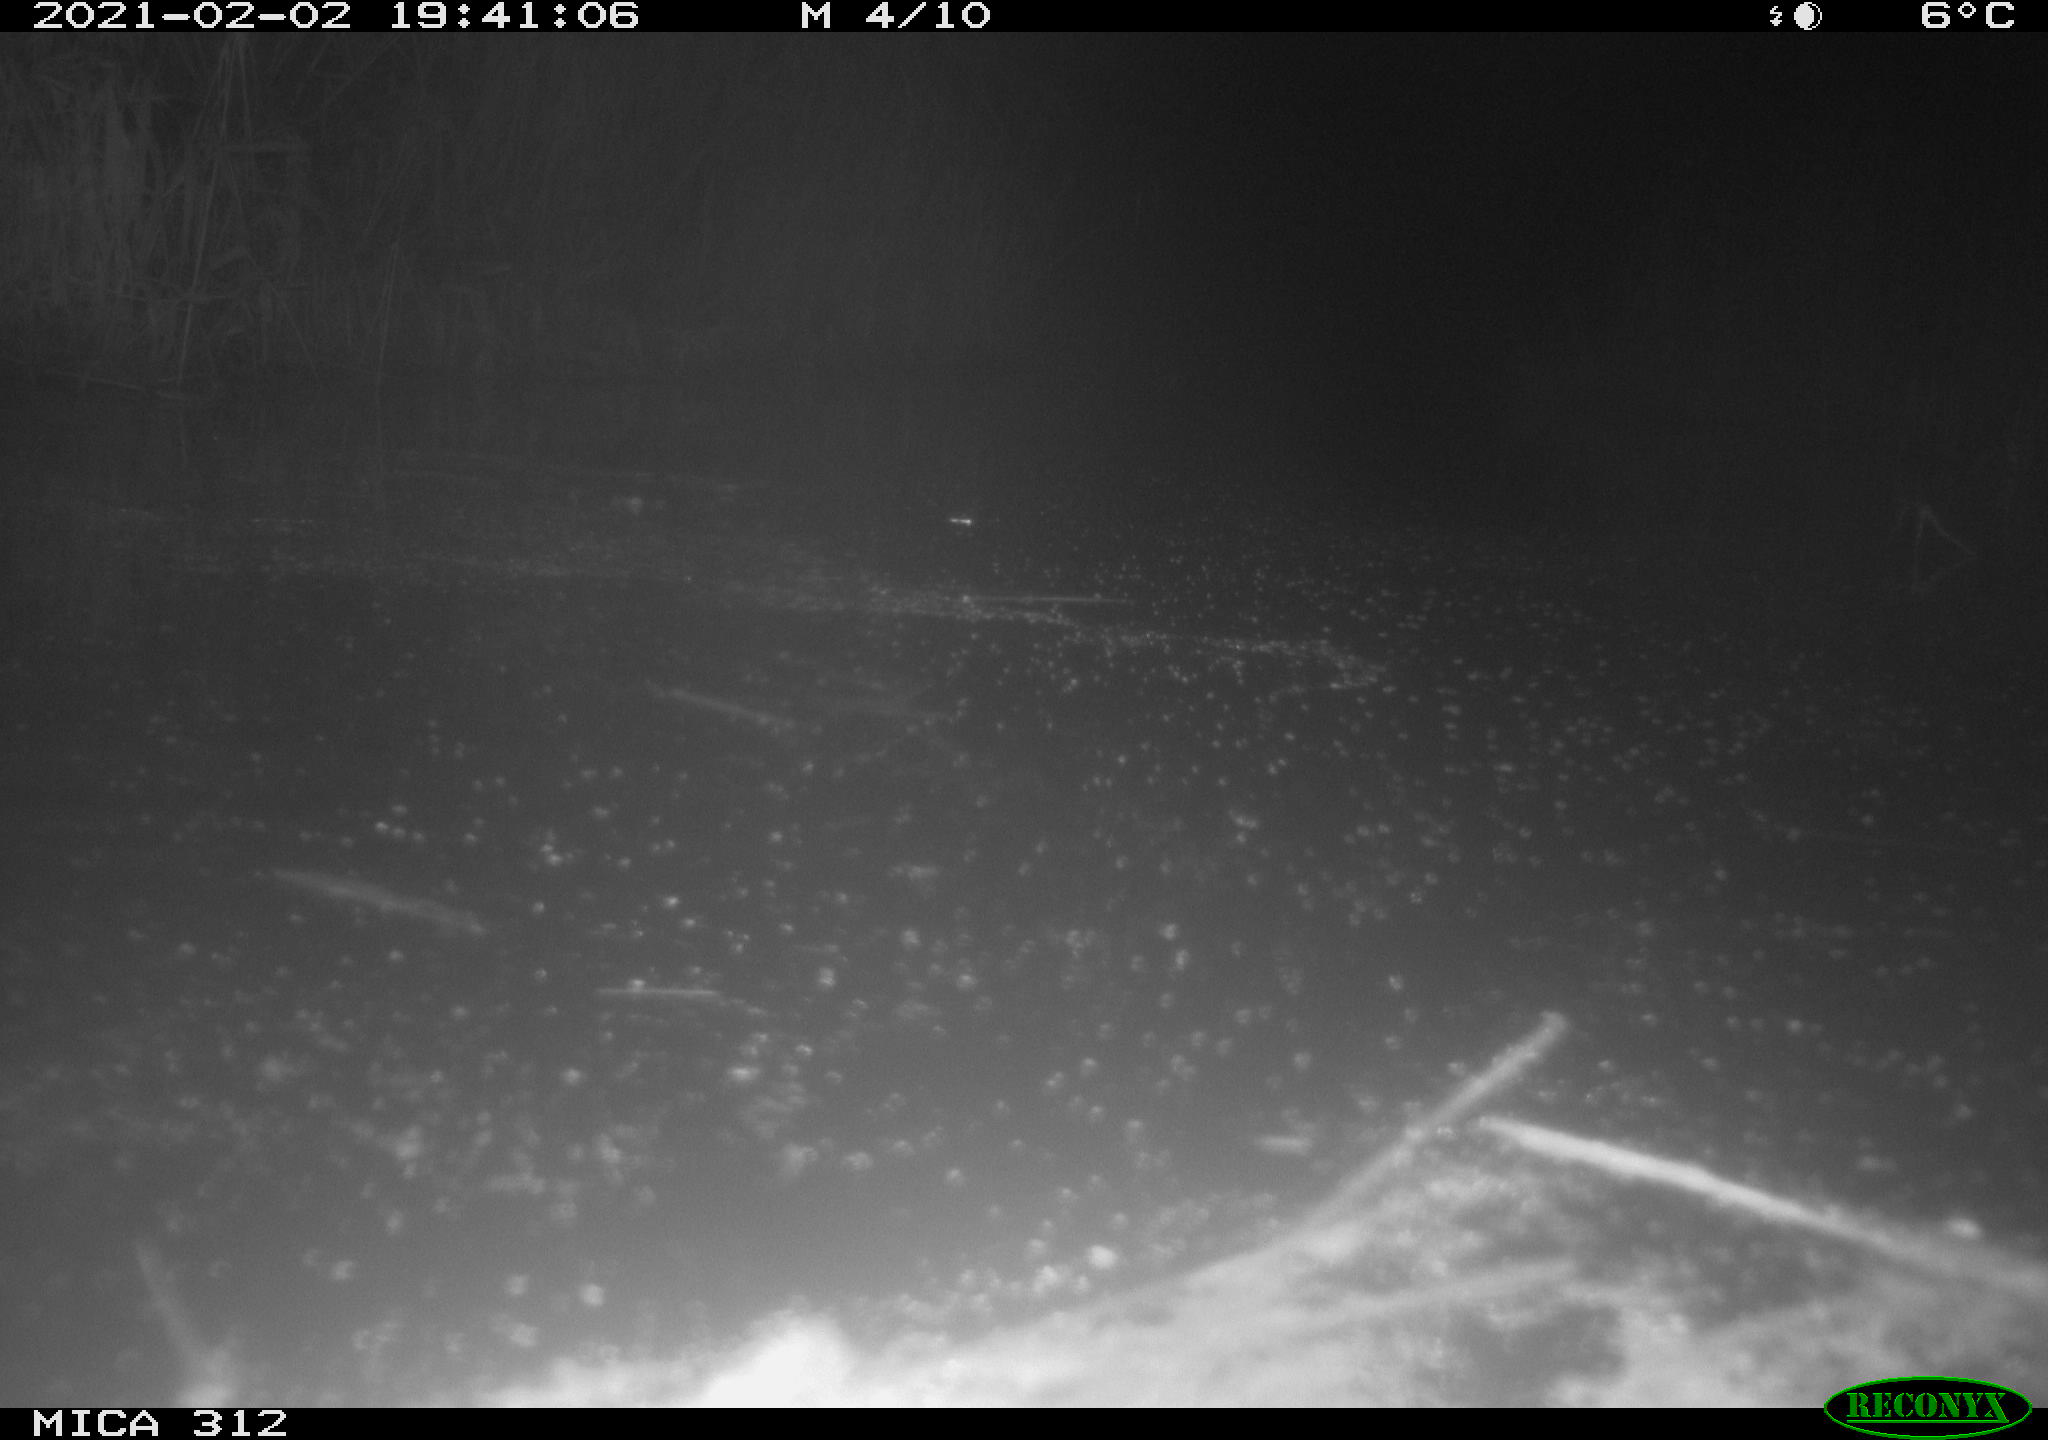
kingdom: Animalia
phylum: Chordata
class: Mammalia
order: Rodentia
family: Muridae
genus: Rattus
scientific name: Rattus norvegicus
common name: Brown rat
